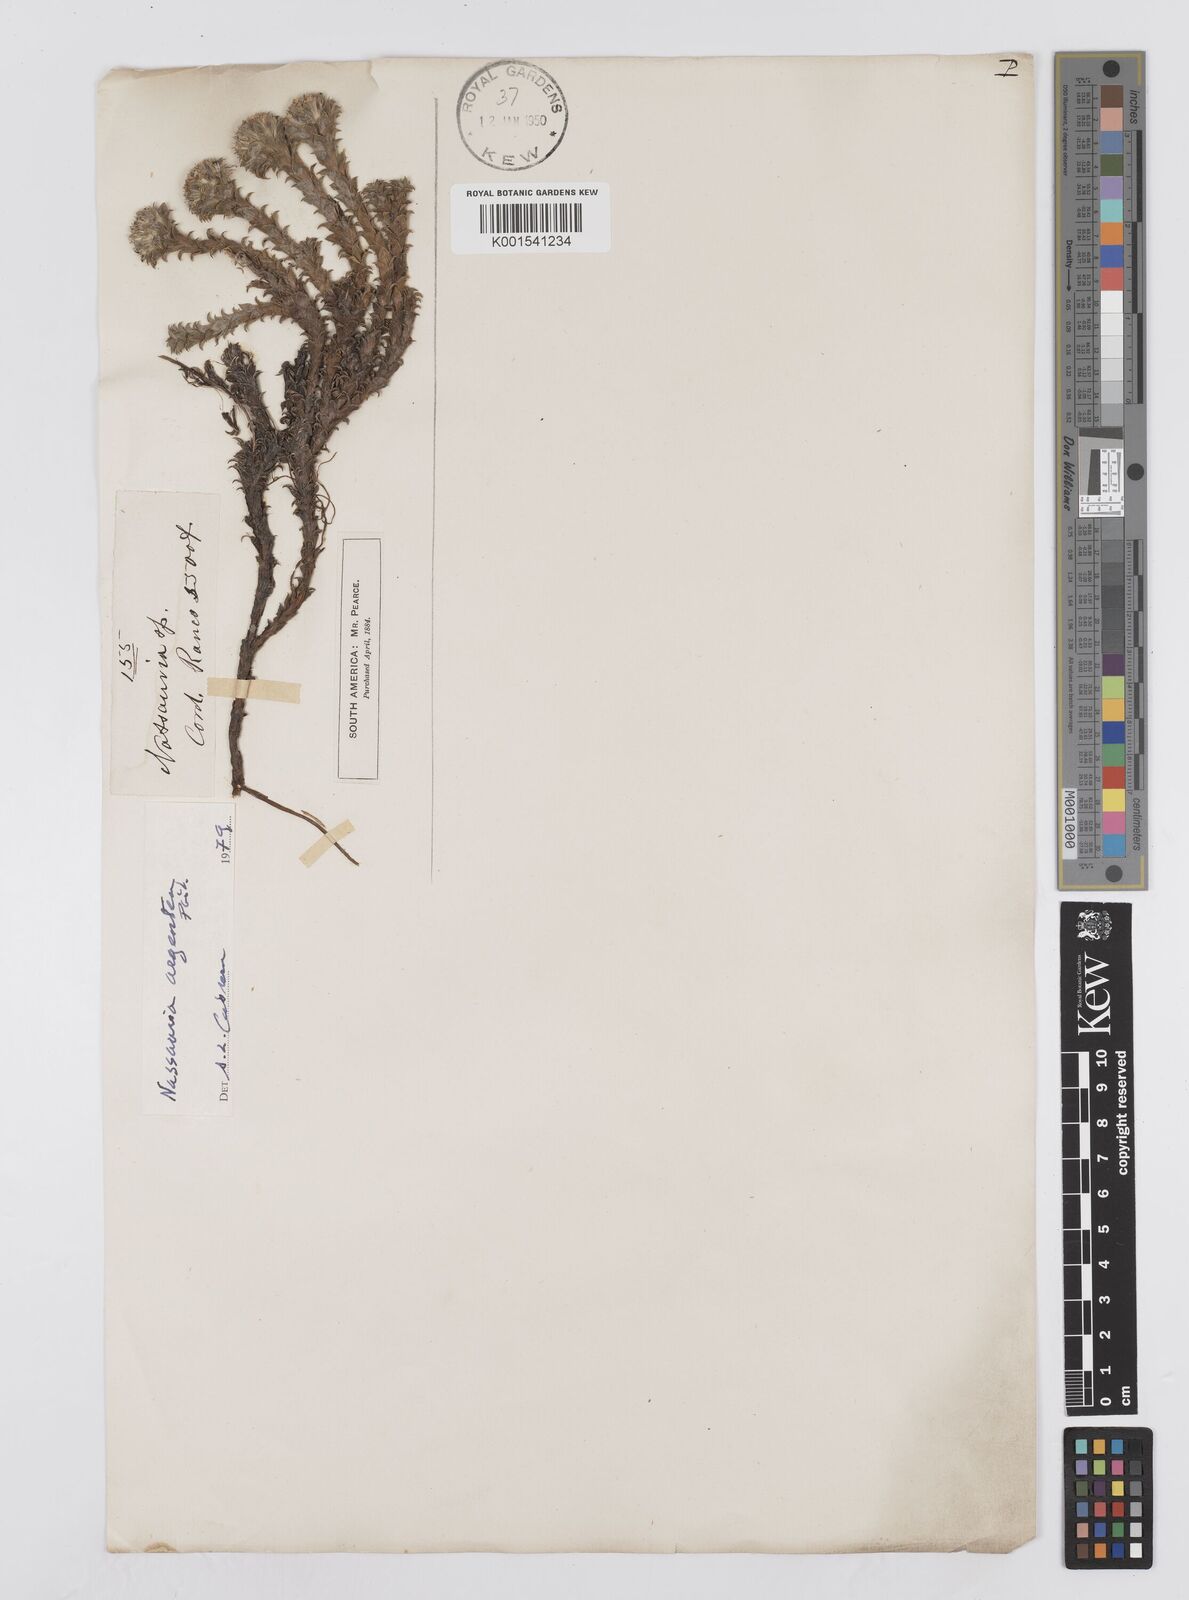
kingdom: Plantae
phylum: Tracheophyta
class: Magnoliopsida
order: Asterales
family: Asteraceae
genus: Nassauvia
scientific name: Nassauvia argentea
